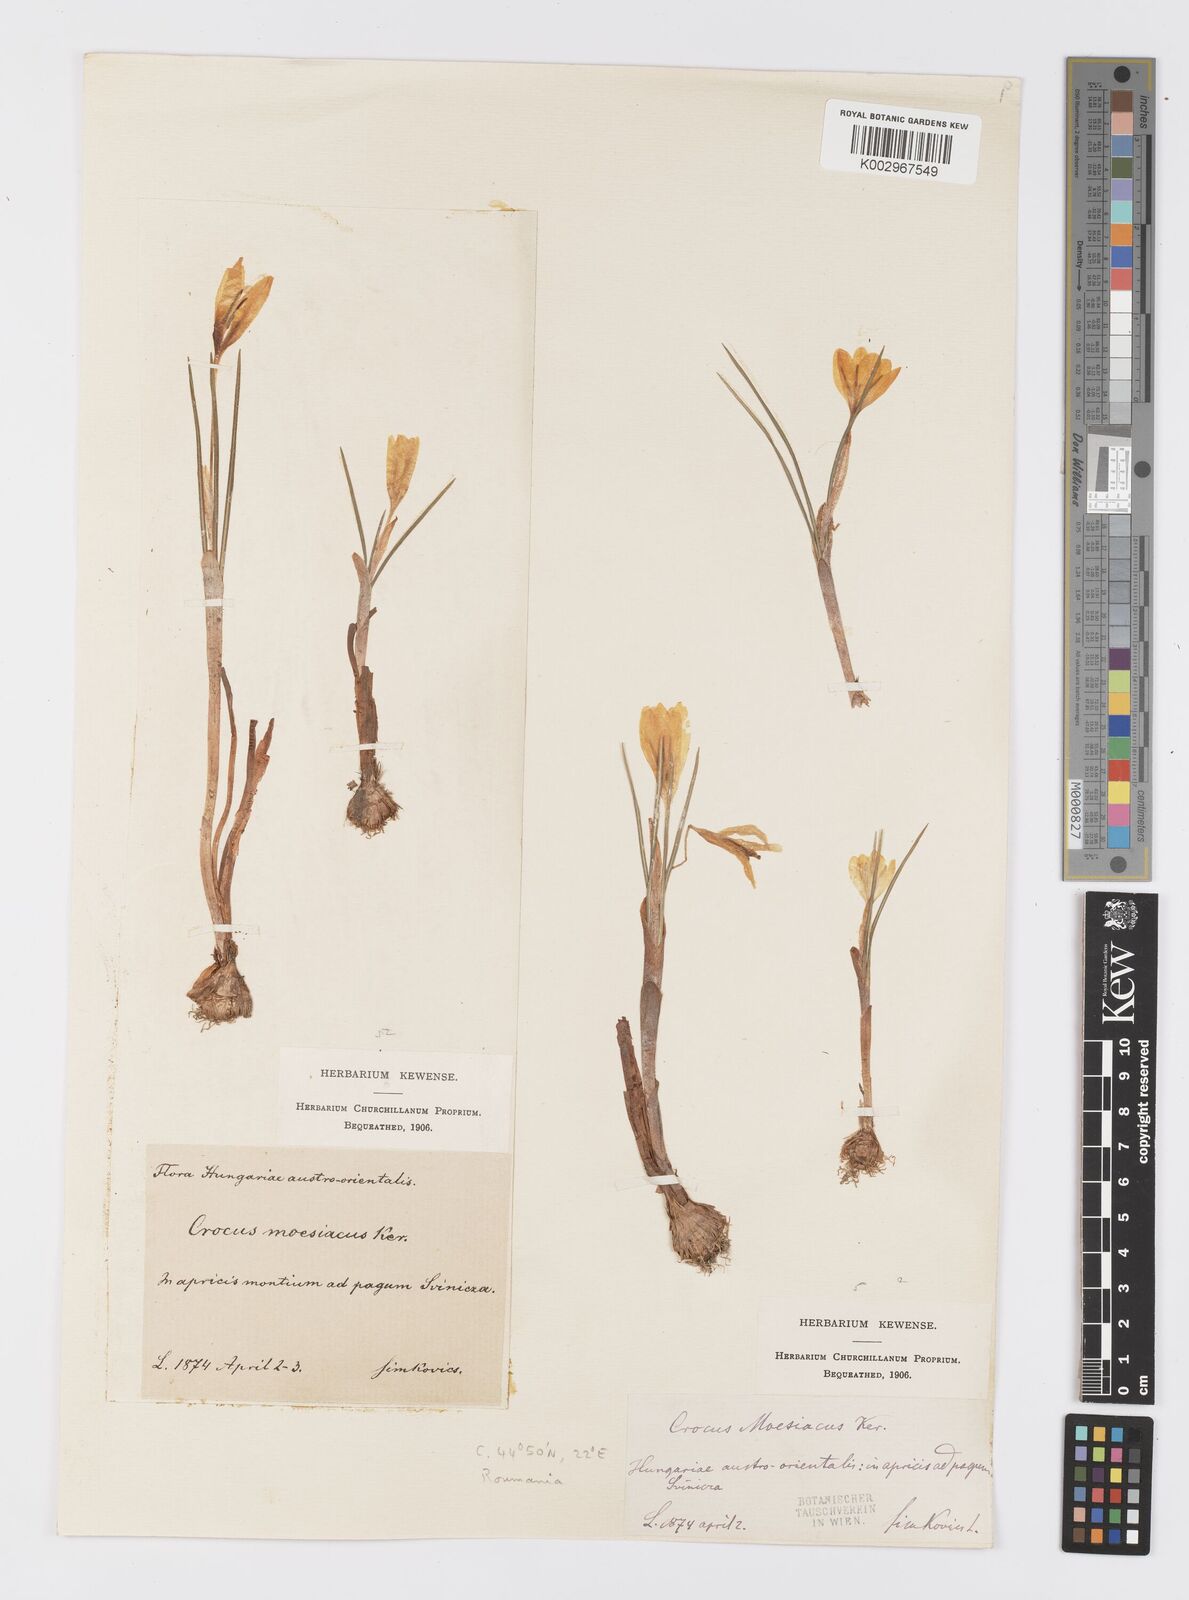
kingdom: Plantae
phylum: Tracheophyta
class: Liliopsida
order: Asparagales
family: Iridaceae
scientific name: Iridaceae
